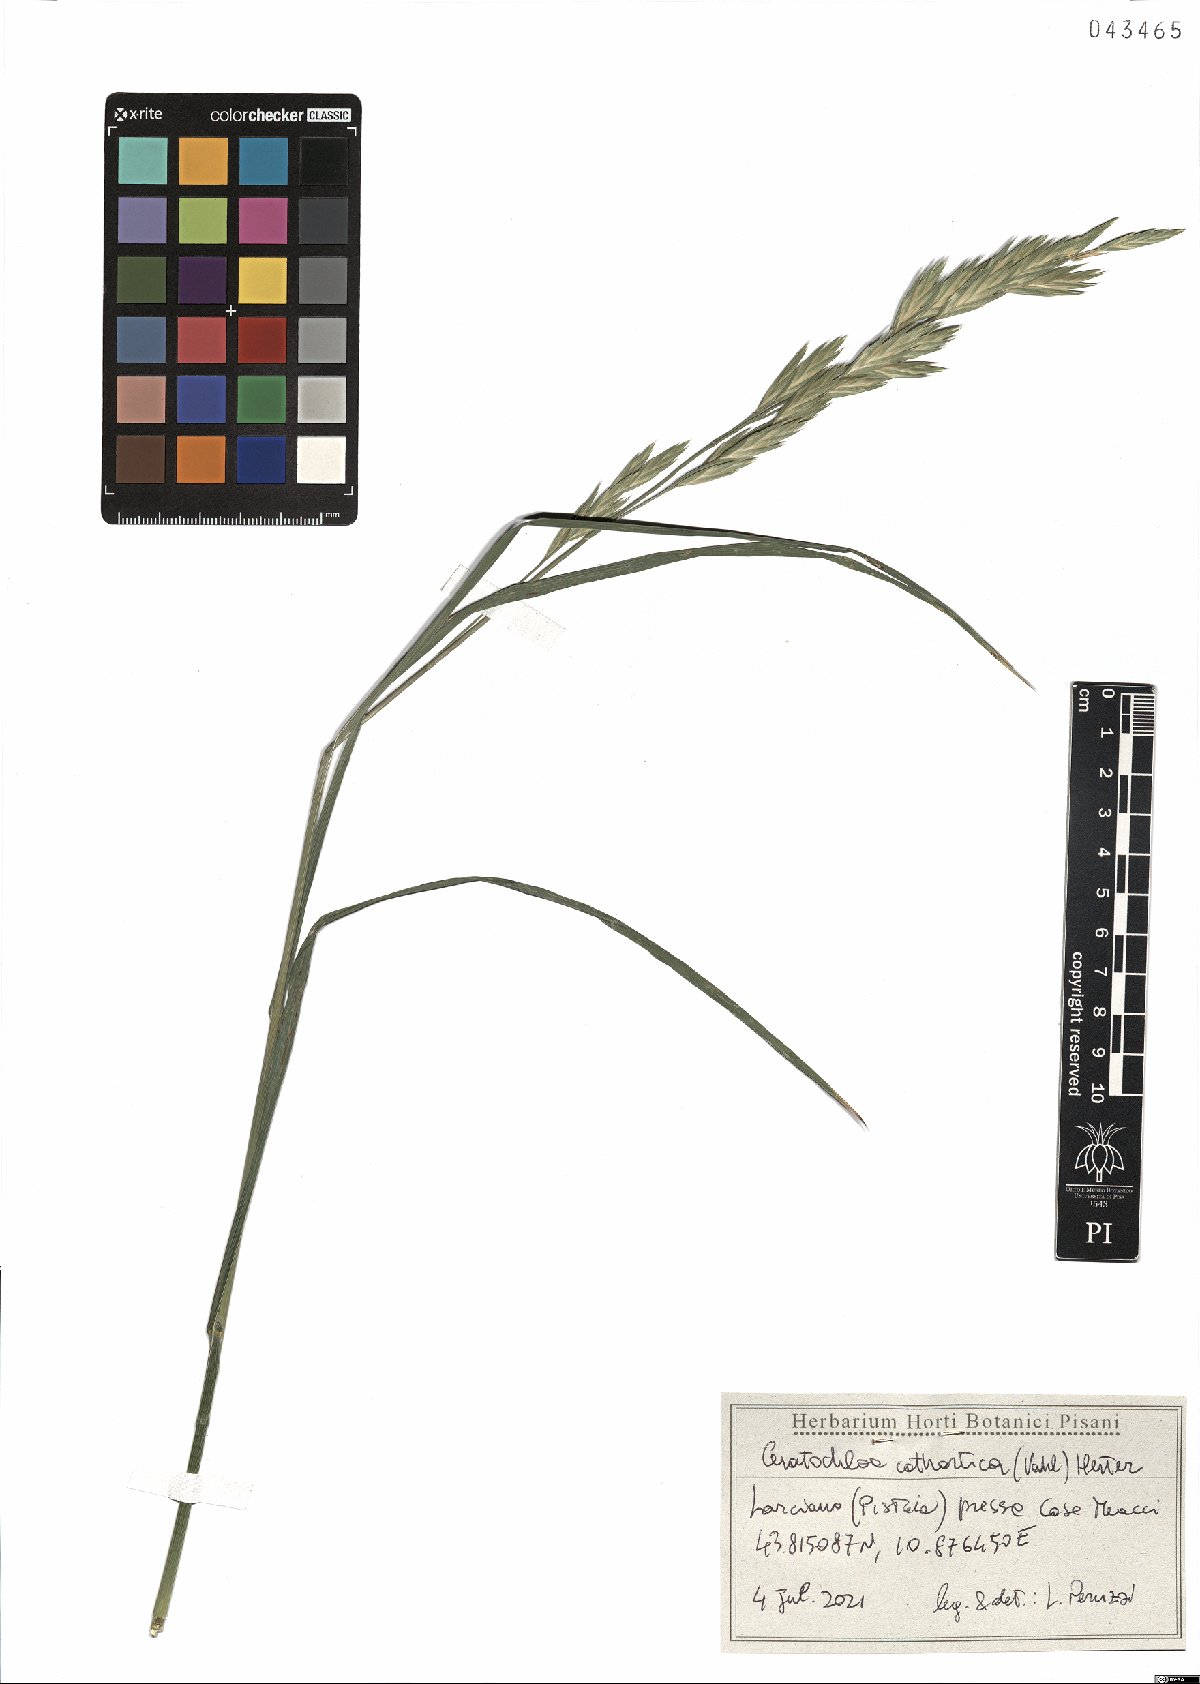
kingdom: Plantae
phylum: Tracheophyta
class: Liliopsida
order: Poales
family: Poaceae
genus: Bromus
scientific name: Bromus catharticus
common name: Rescuegrass
